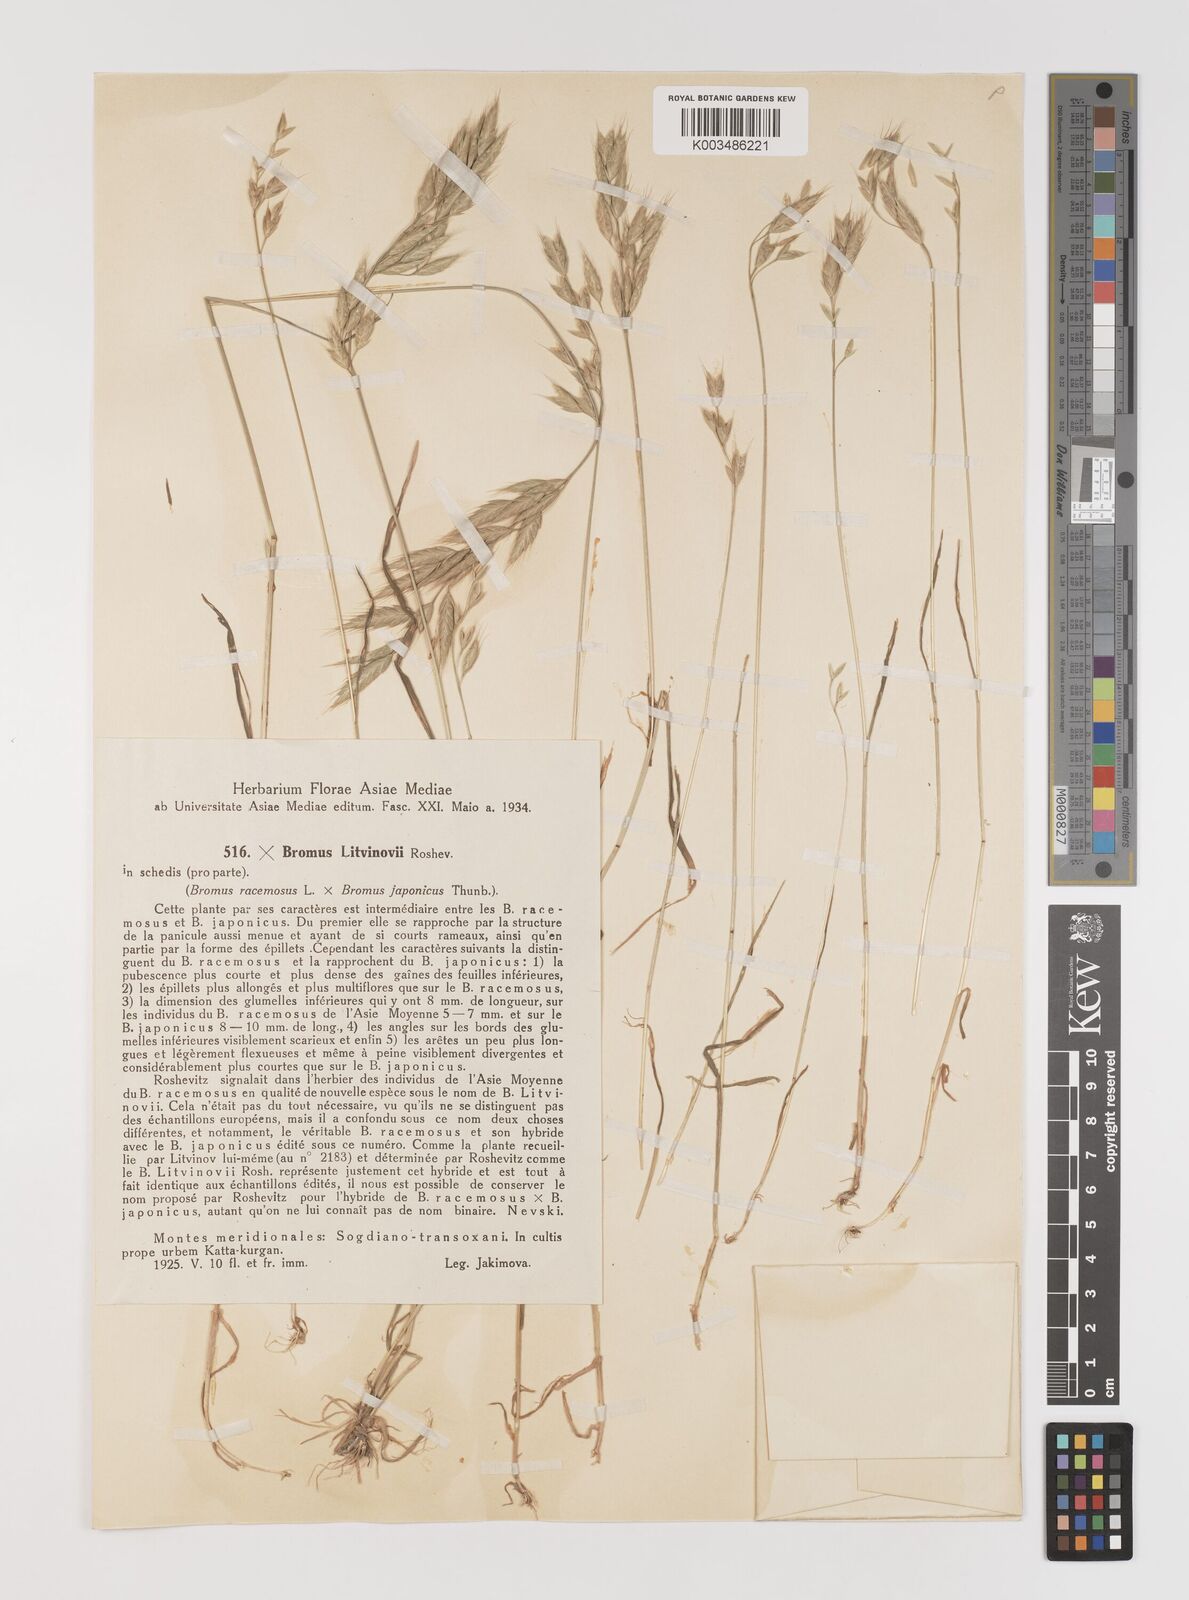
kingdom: Plantae
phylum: Tracheophyta
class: Liliopsida
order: Poales
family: Poaceae
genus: Bromus
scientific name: Bromus litvinovii
